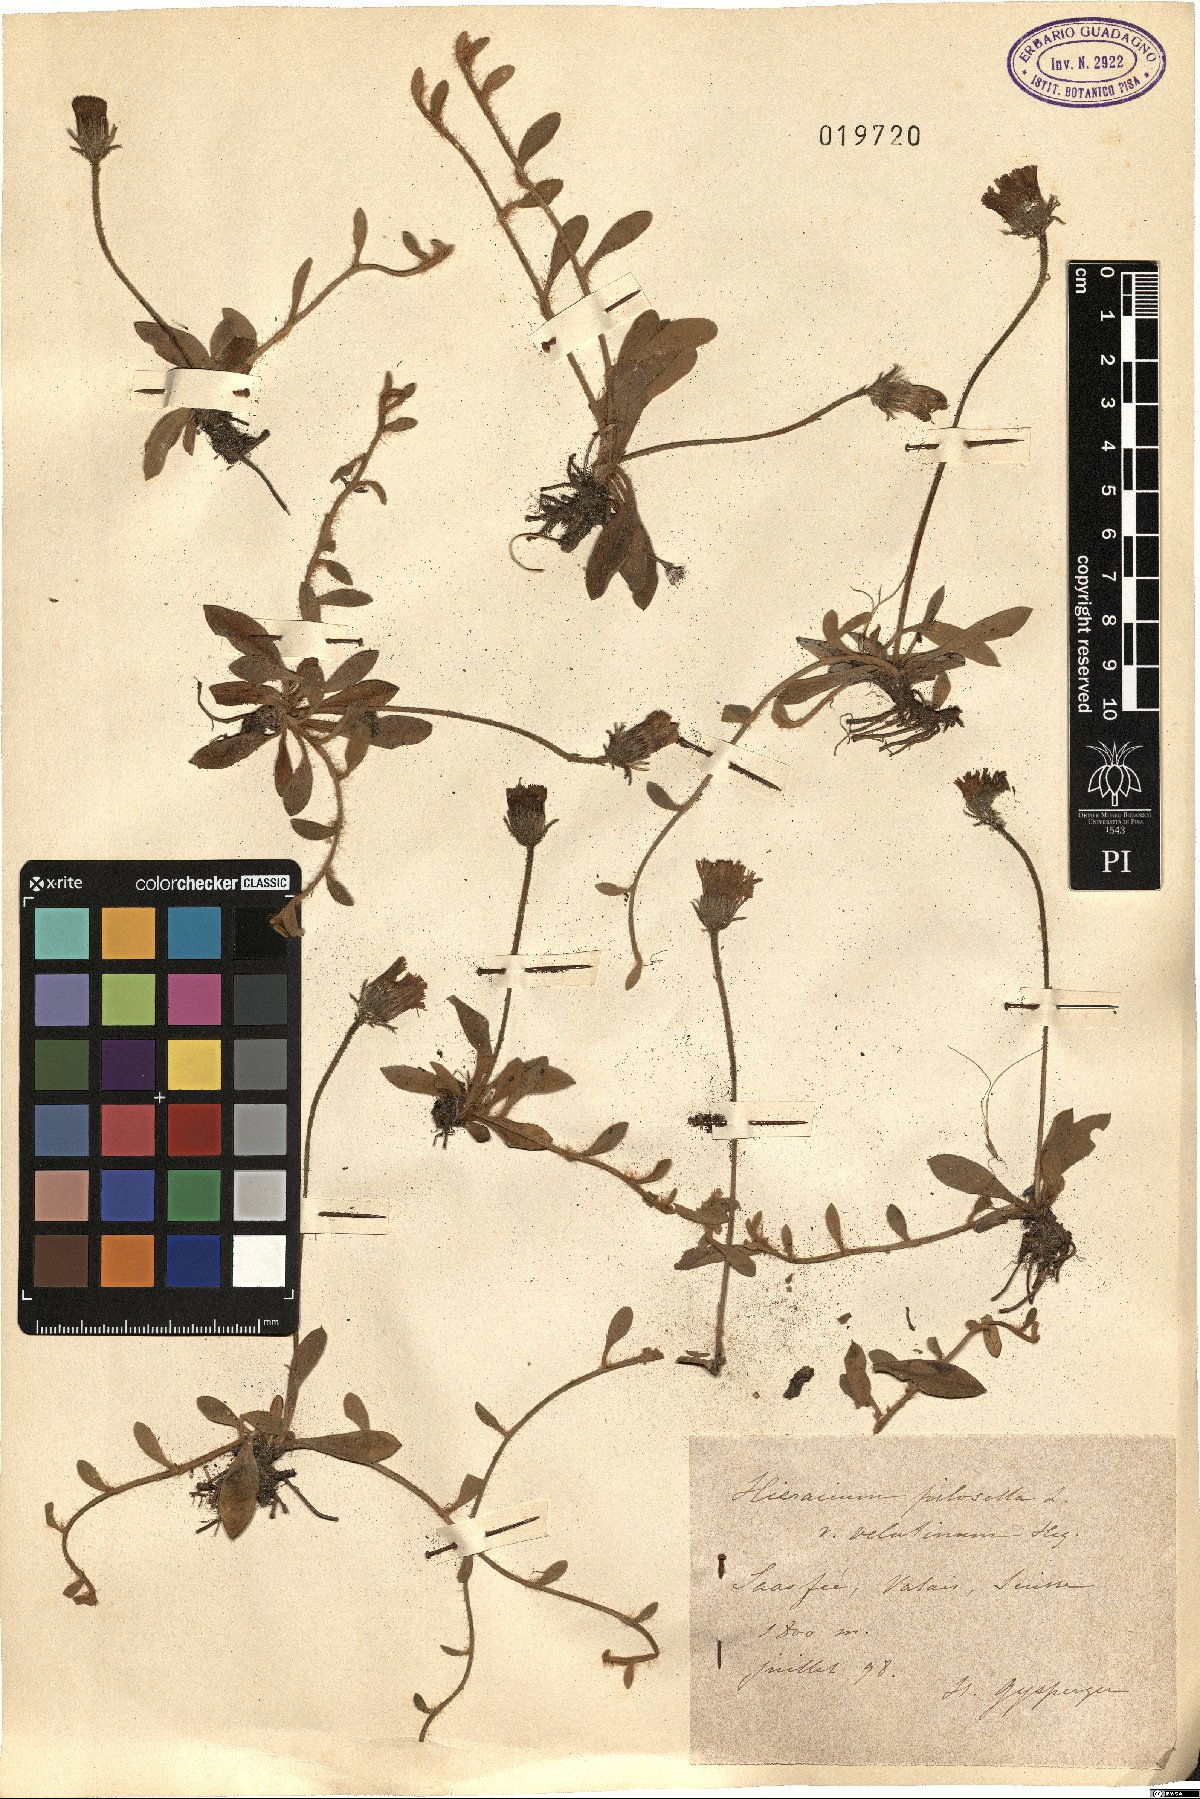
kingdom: Plantae
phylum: Tracheophyta
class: Magnoliopsida
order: Asterales
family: Asteraceae
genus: Pilosella
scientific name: Pilosella velutina
